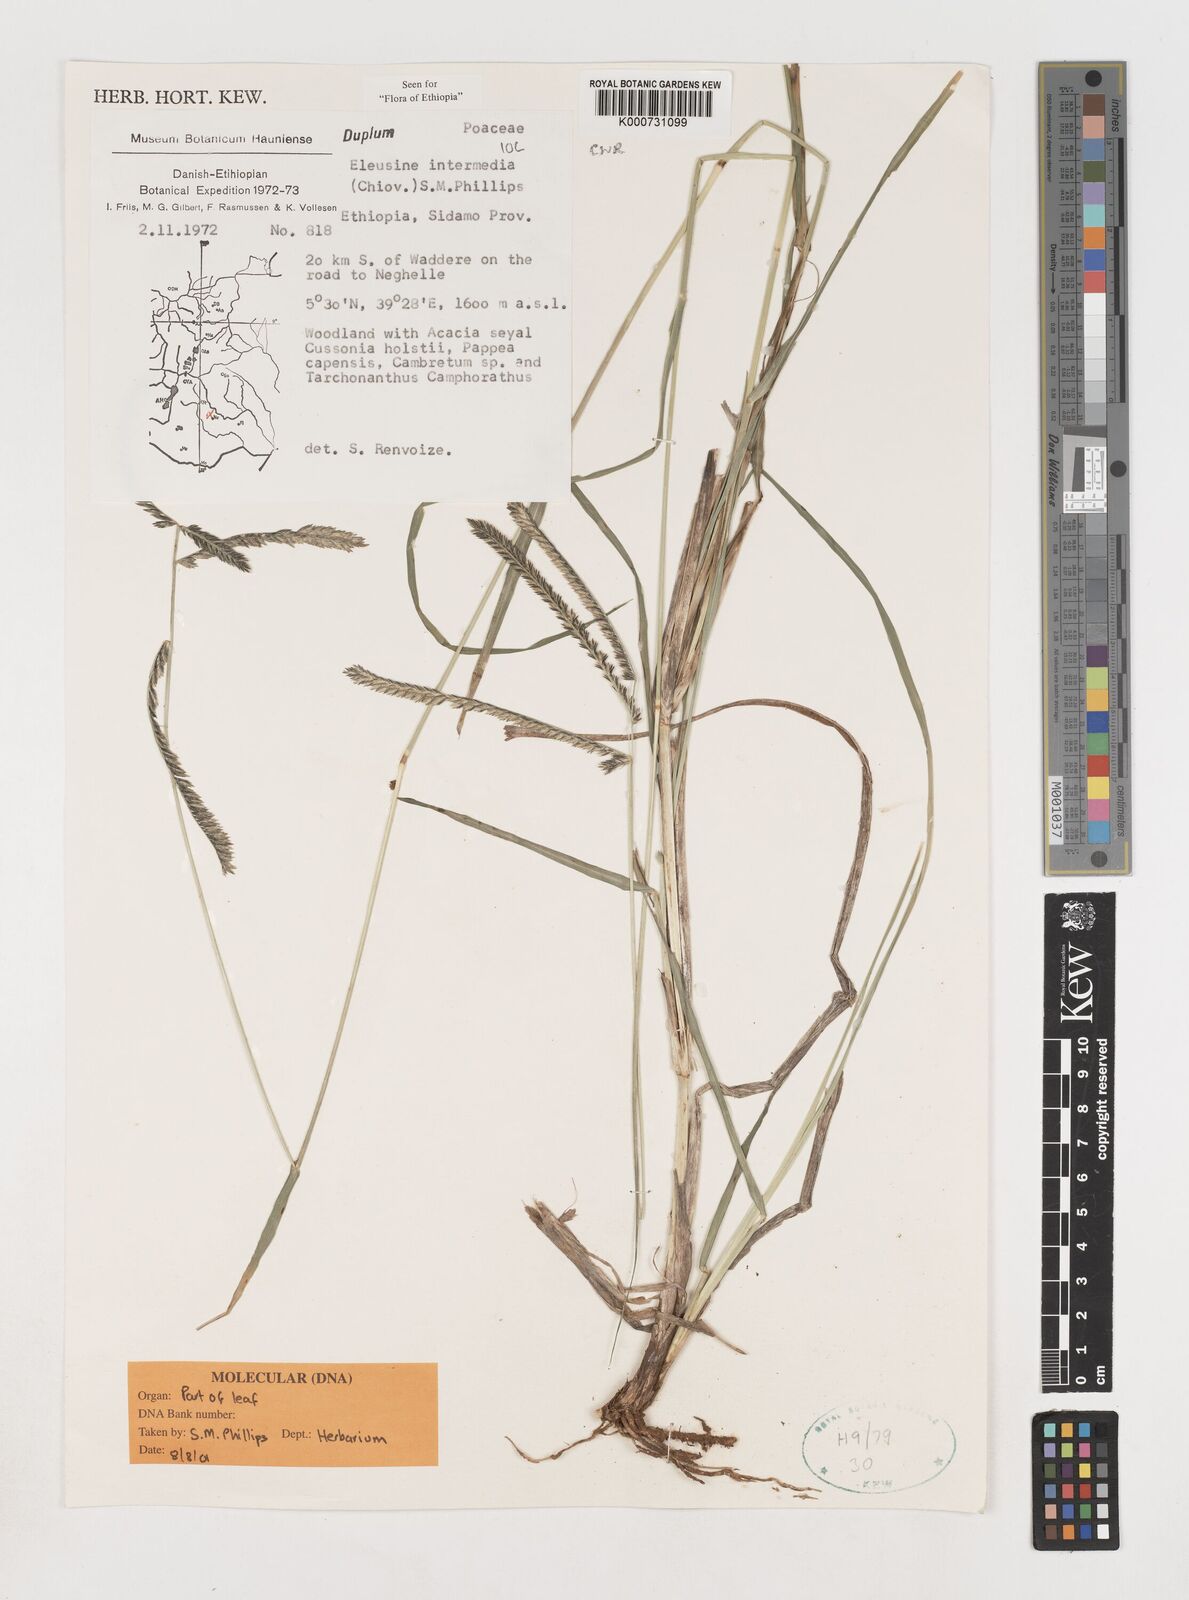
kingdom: Plantae
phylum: Tracheophyta
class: Liliopsida
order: Poales
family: Poaceae
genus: Eleusine
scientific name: Eleusine intermedia
